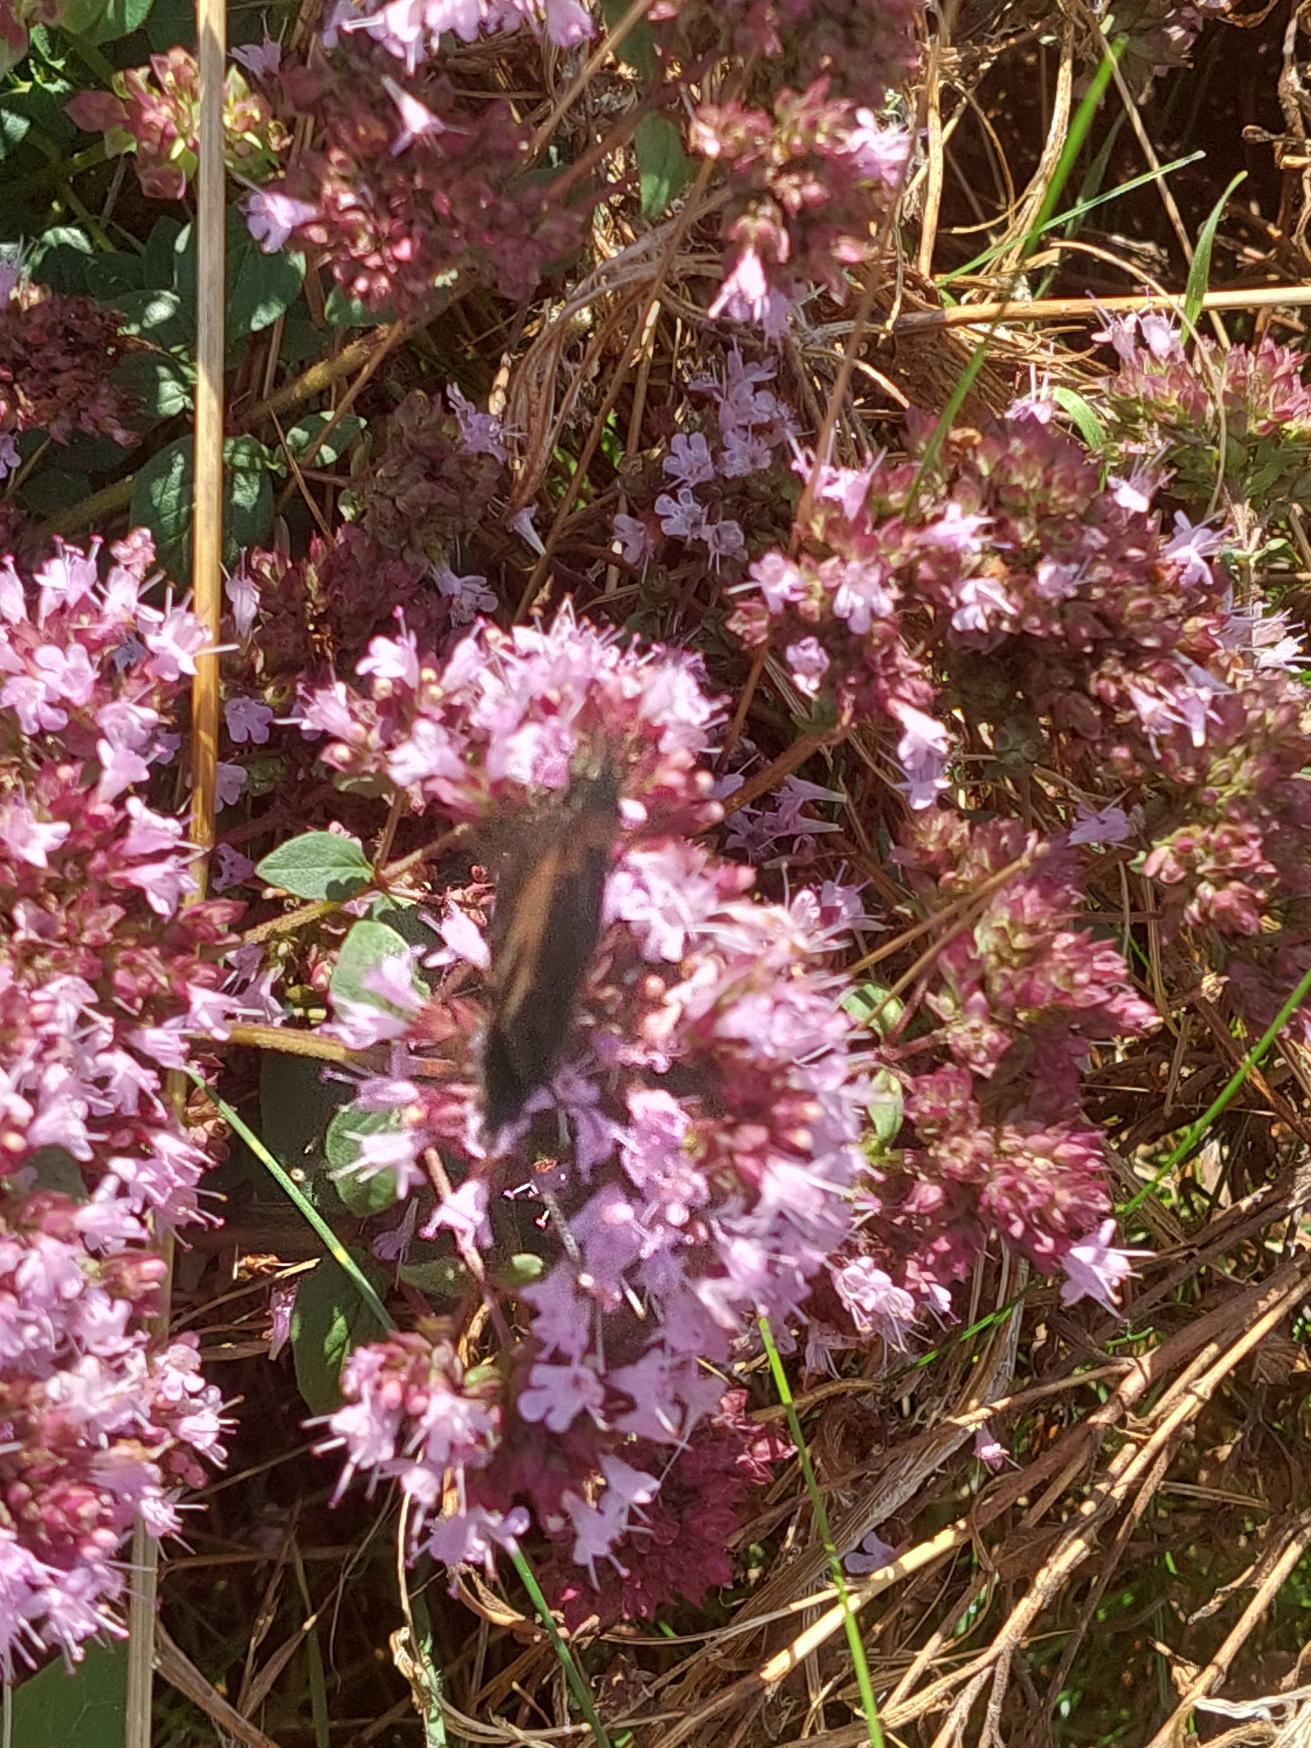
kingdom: Animalia
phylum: Arthropoda
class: Insecta
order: Lepidoptera
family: Nymphalidae
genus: Aglais
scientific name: Aglais urticae
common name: Nældens takvinge
